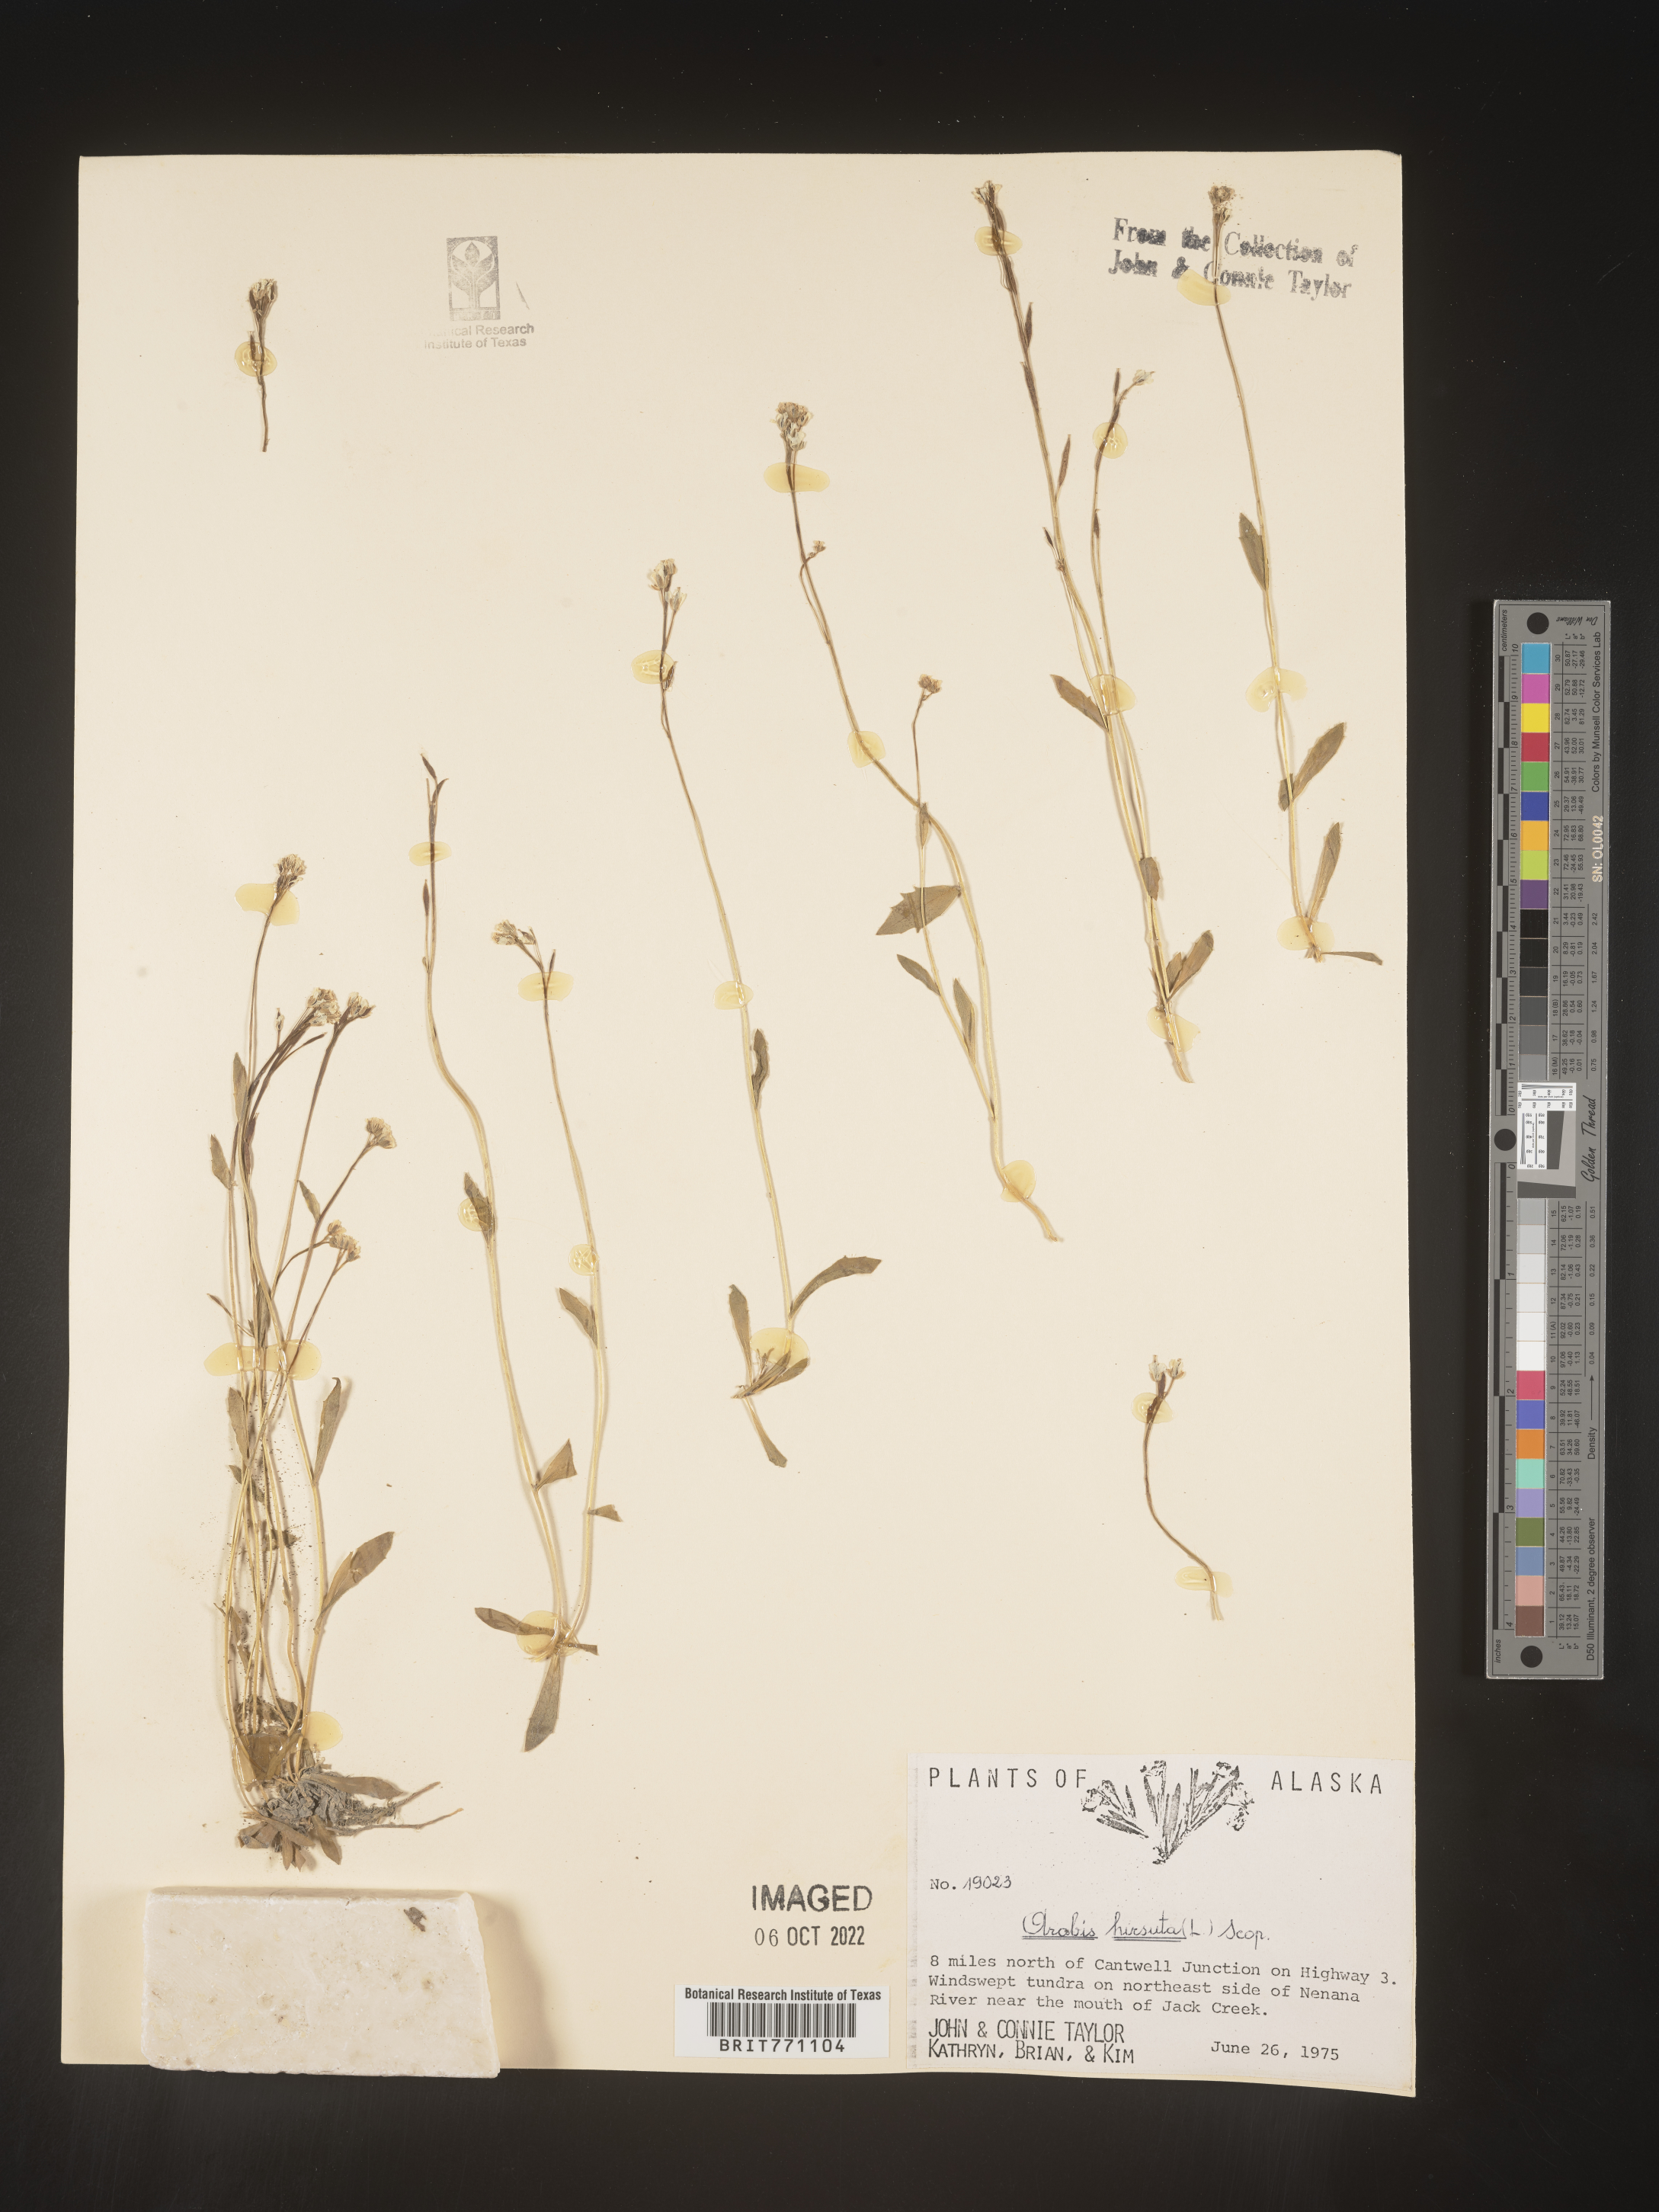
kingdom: Plantae
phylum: Tracheophyta
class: Magnoliopsida
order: Brassicales
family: Brassicaceae
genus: Arabis
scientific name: Arabis hirsuta
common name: Hairy rock-cress
